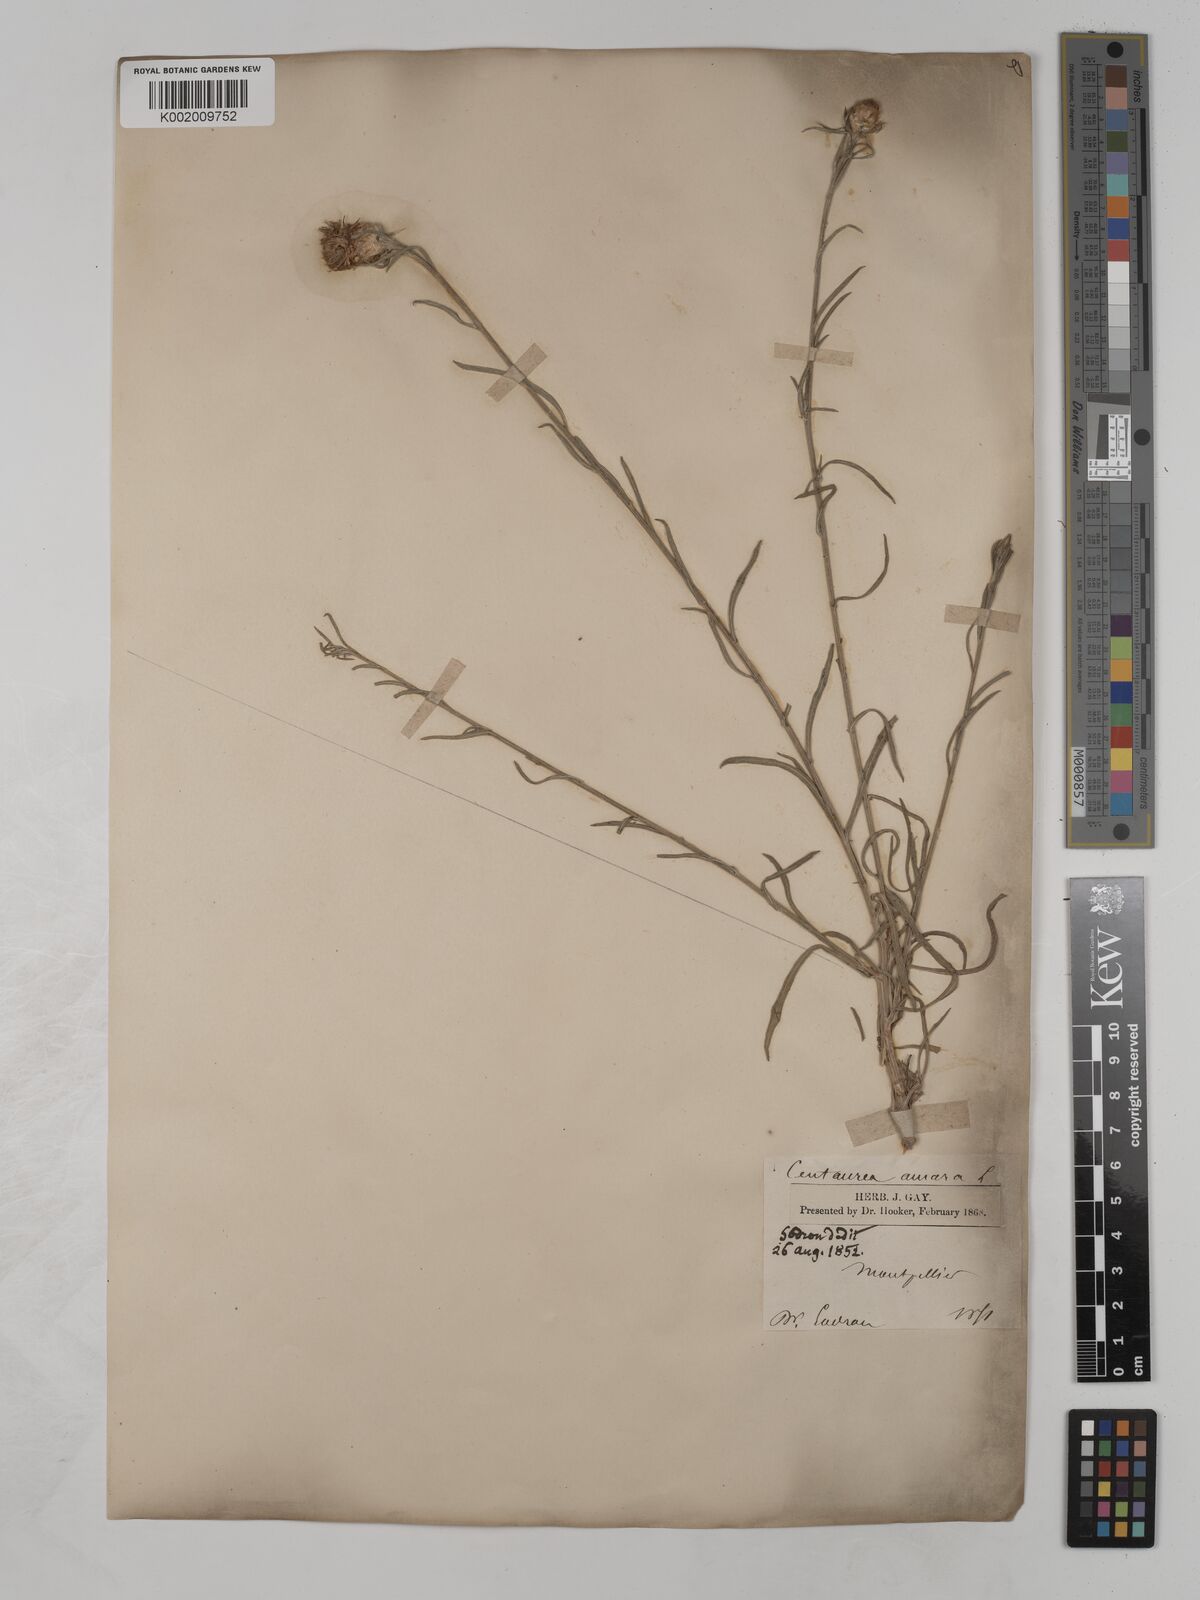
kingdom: Plantae
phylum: Tracheophyta
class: Magnoliopsida
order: Asterales
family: Asteraceae
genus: Centaurea
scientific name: Centaurea timbalii
